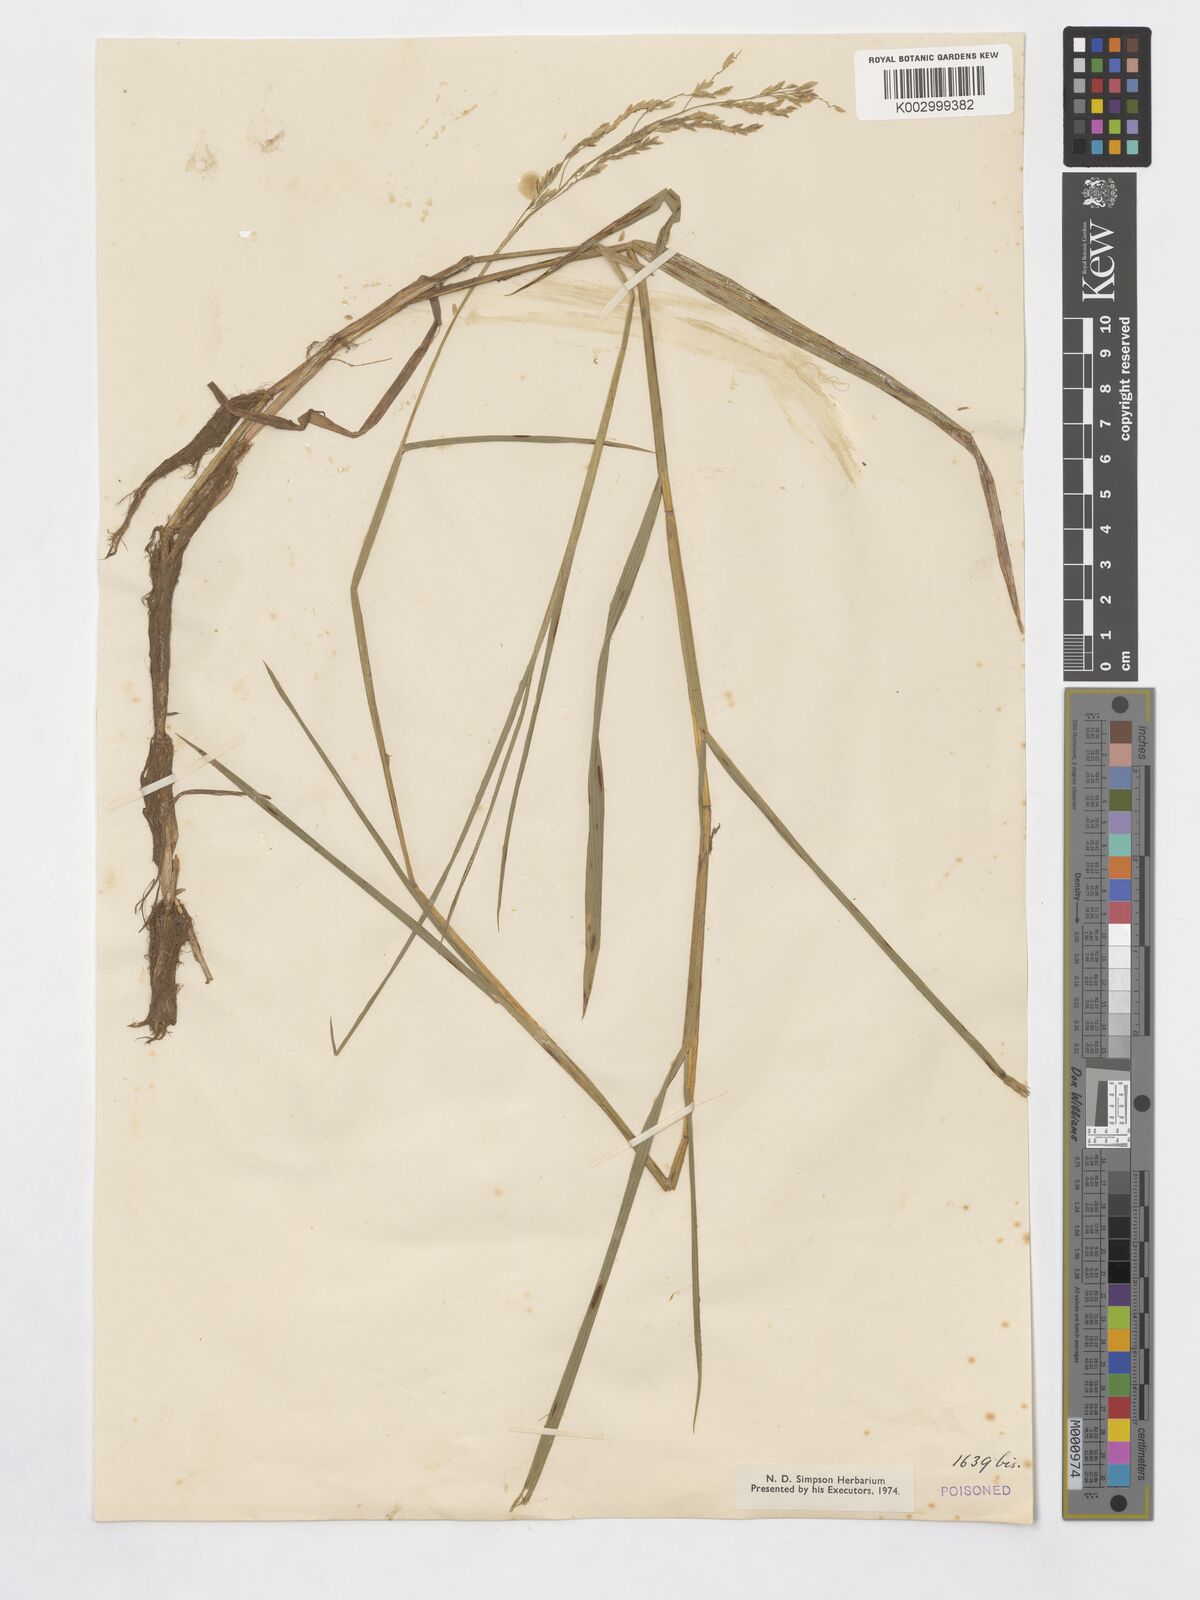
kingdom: Plantae
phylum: Tracheophyta
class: Liliopsida
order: Poales
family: Poaceae
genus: Leersia
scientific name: Leersia hexandra
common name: Southern cut grass
